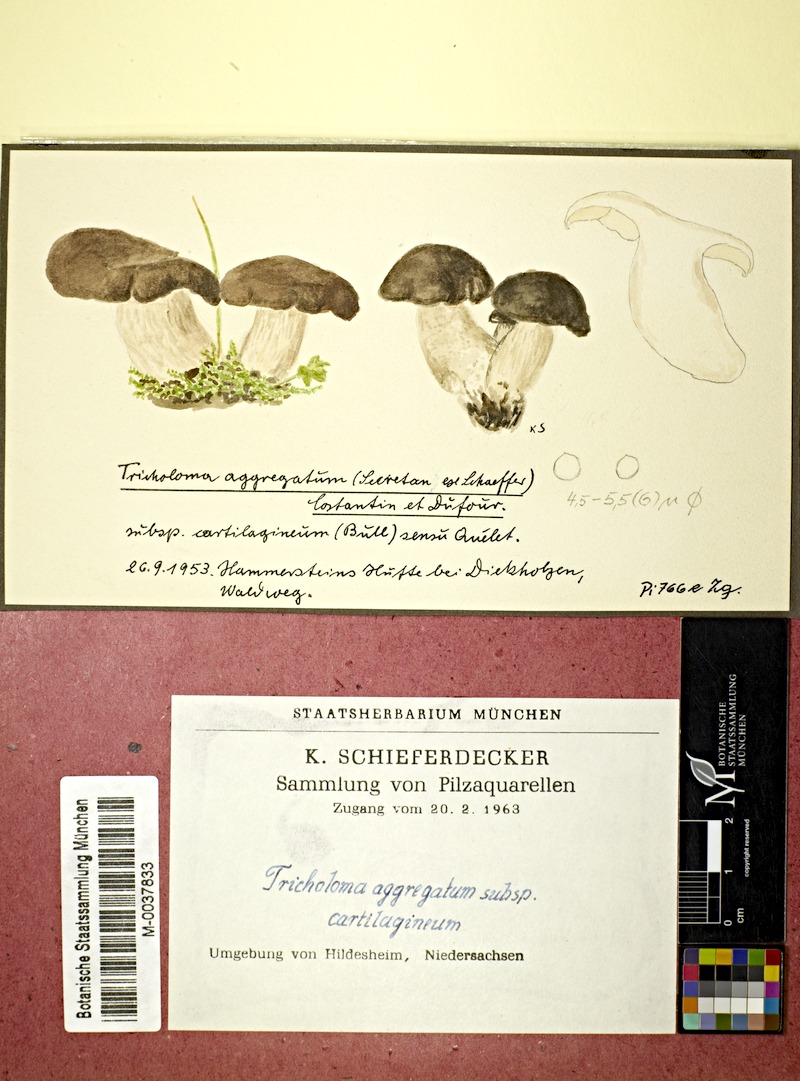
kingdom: Fungi
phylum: Basidiomycota
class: Agaricomycetes
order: Agaricales
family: Lyophyllaceae
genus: Lyophyllum
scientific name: Lyophyllum loricatum
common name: Gristly domecap
